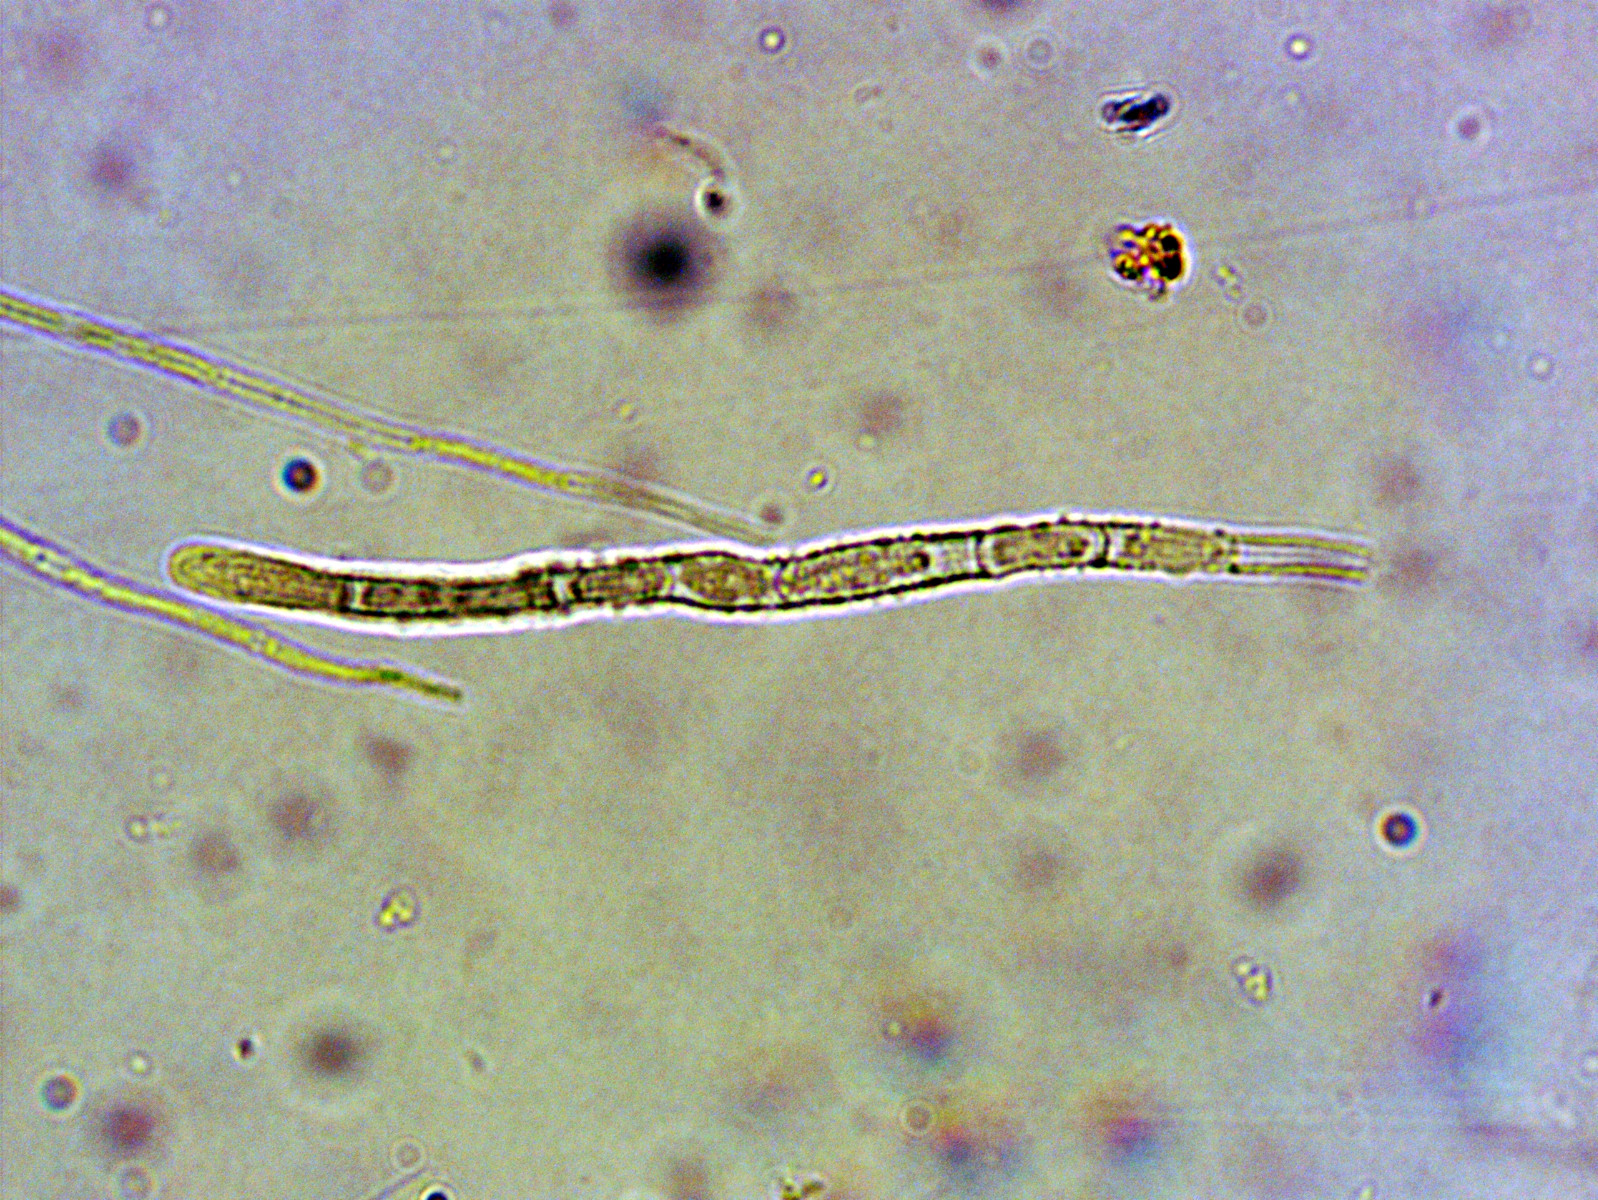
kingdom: Fungi
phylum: Ascomycota
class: Leotiomycetes
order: Helotiales
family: Lachnaceae
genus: Lachnellula
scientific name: Lachnellula subtilissima
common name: gran-frynseskive
